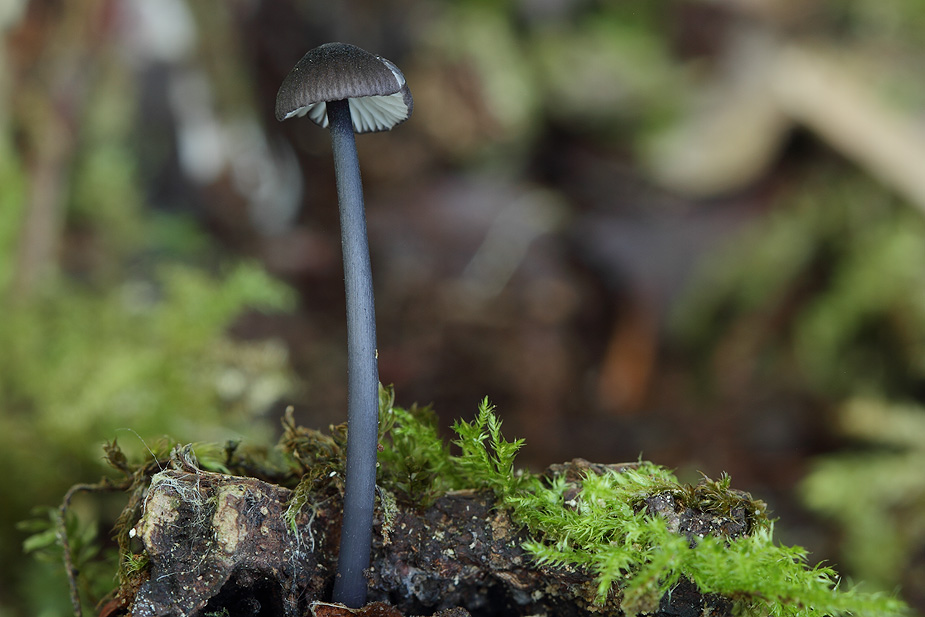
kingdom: Fungi
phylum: Basidiomycota
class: Agaricomycetes
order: Agaricales
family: Entolomataceae
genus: Entoloma
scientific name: Entoloma pseudocyanulum
